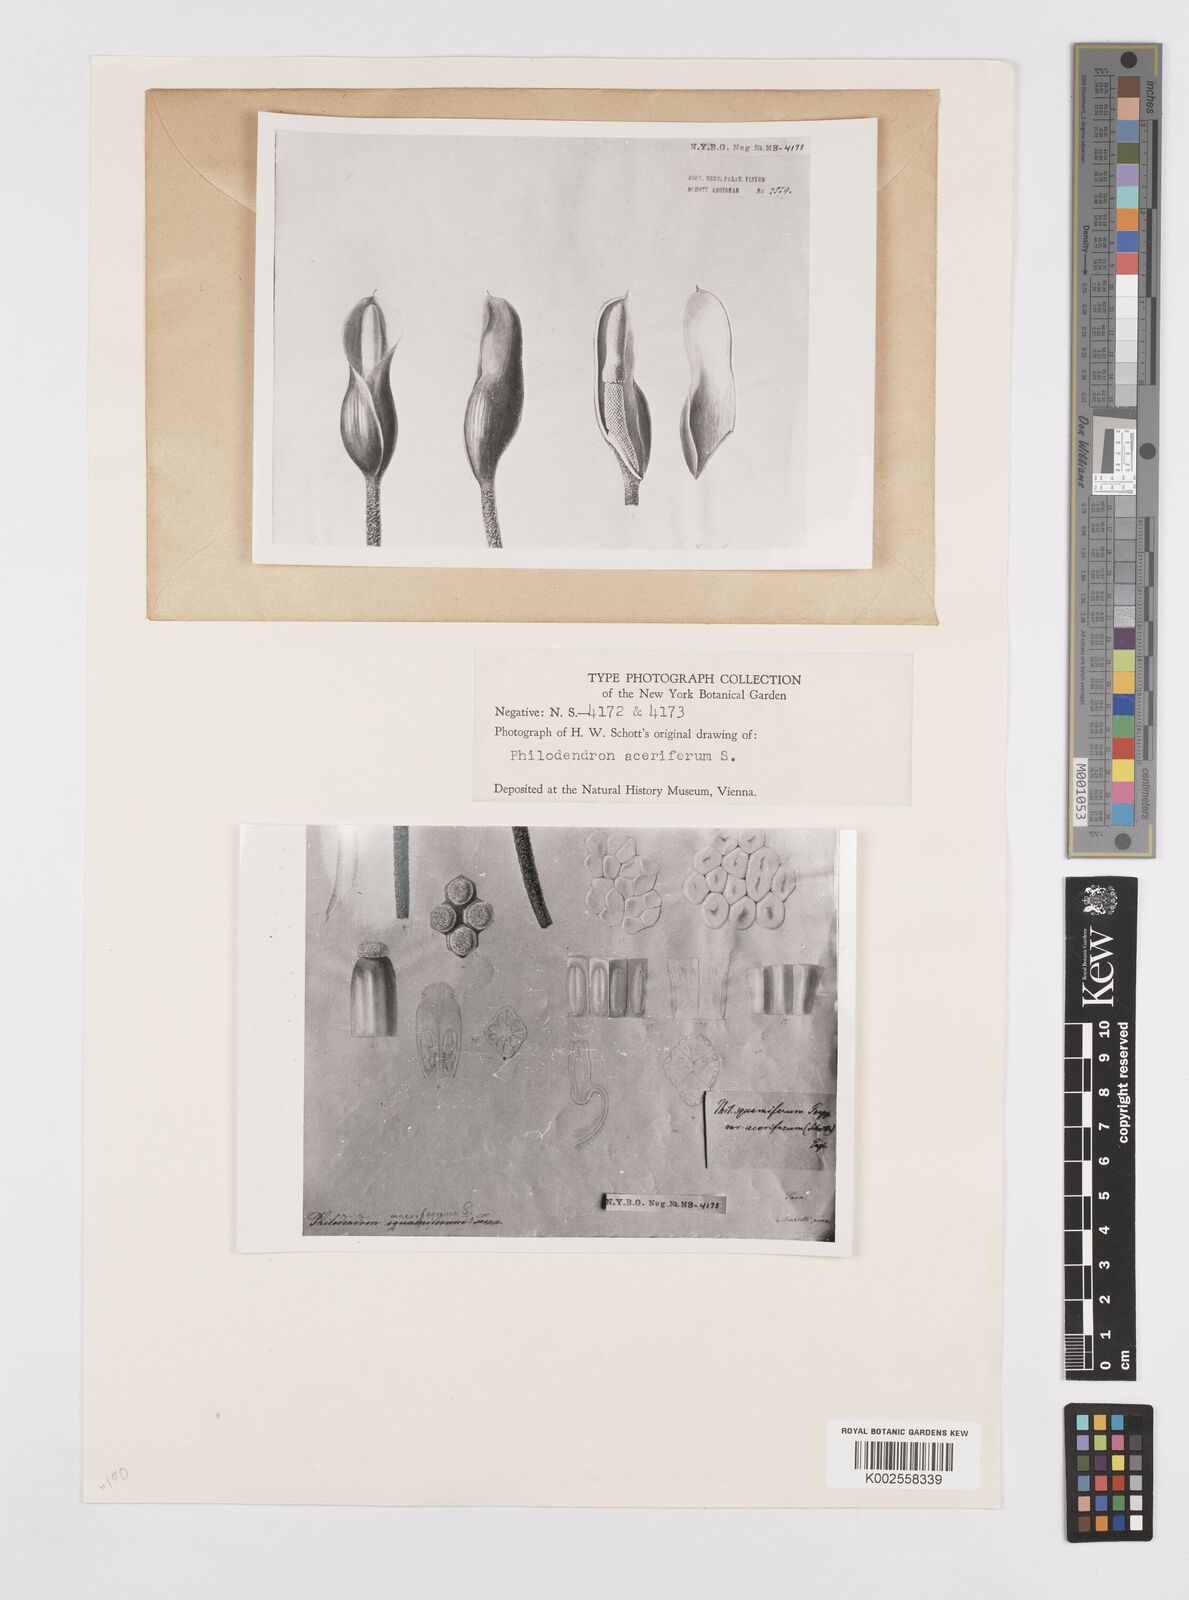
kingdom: Plantae
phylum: Tracheophyta
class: Liliopsida
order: Alismatales
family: Araceae
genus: Philodendron
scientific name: Philodendron squamiferum
